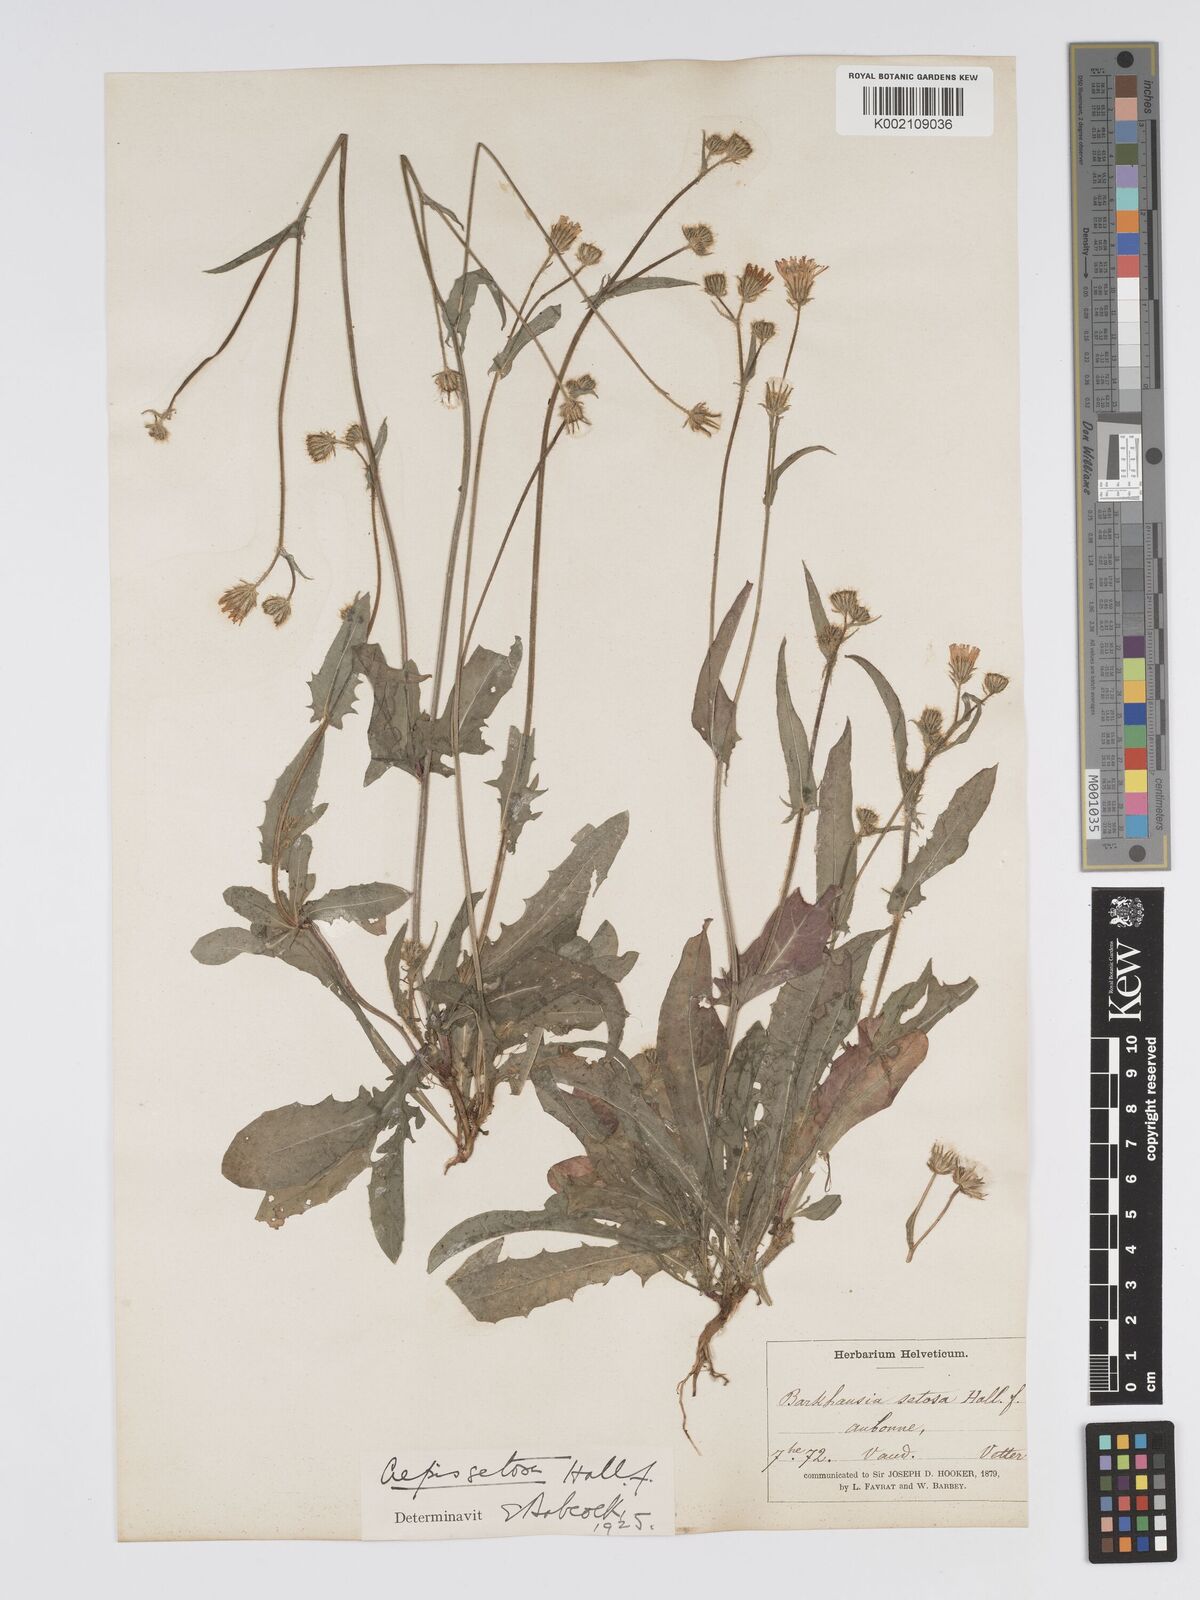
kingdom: Plantae
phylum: Tracheophyta
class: Magnoliopsida
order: Asterales
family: Asteraceae
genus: Crepis
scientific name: Crepis setosa
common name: Bristly hawk's-beard
